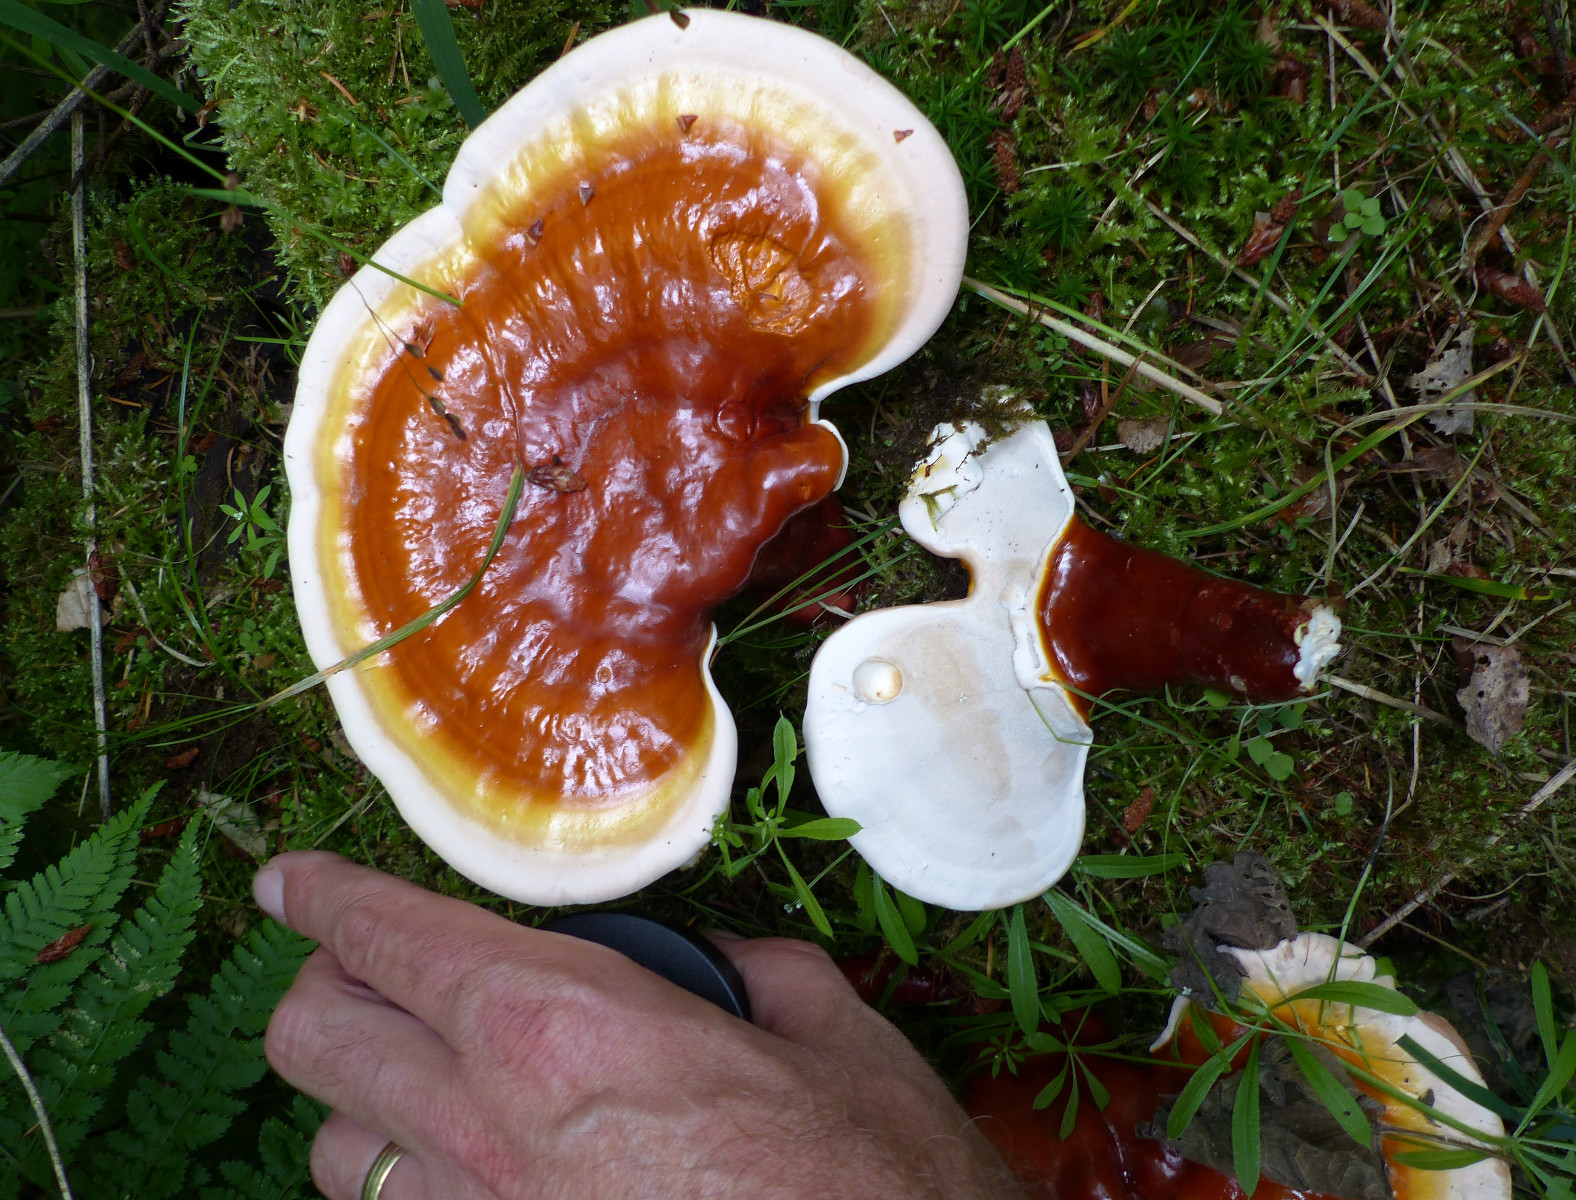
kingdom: Fungi
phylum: Basidiomycota
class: Agaricomycetes
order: Polyporales
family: Polyporaceae
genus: Ganoderma
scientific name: Ganoderma lucidum
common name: skinnende lakporesvamp
